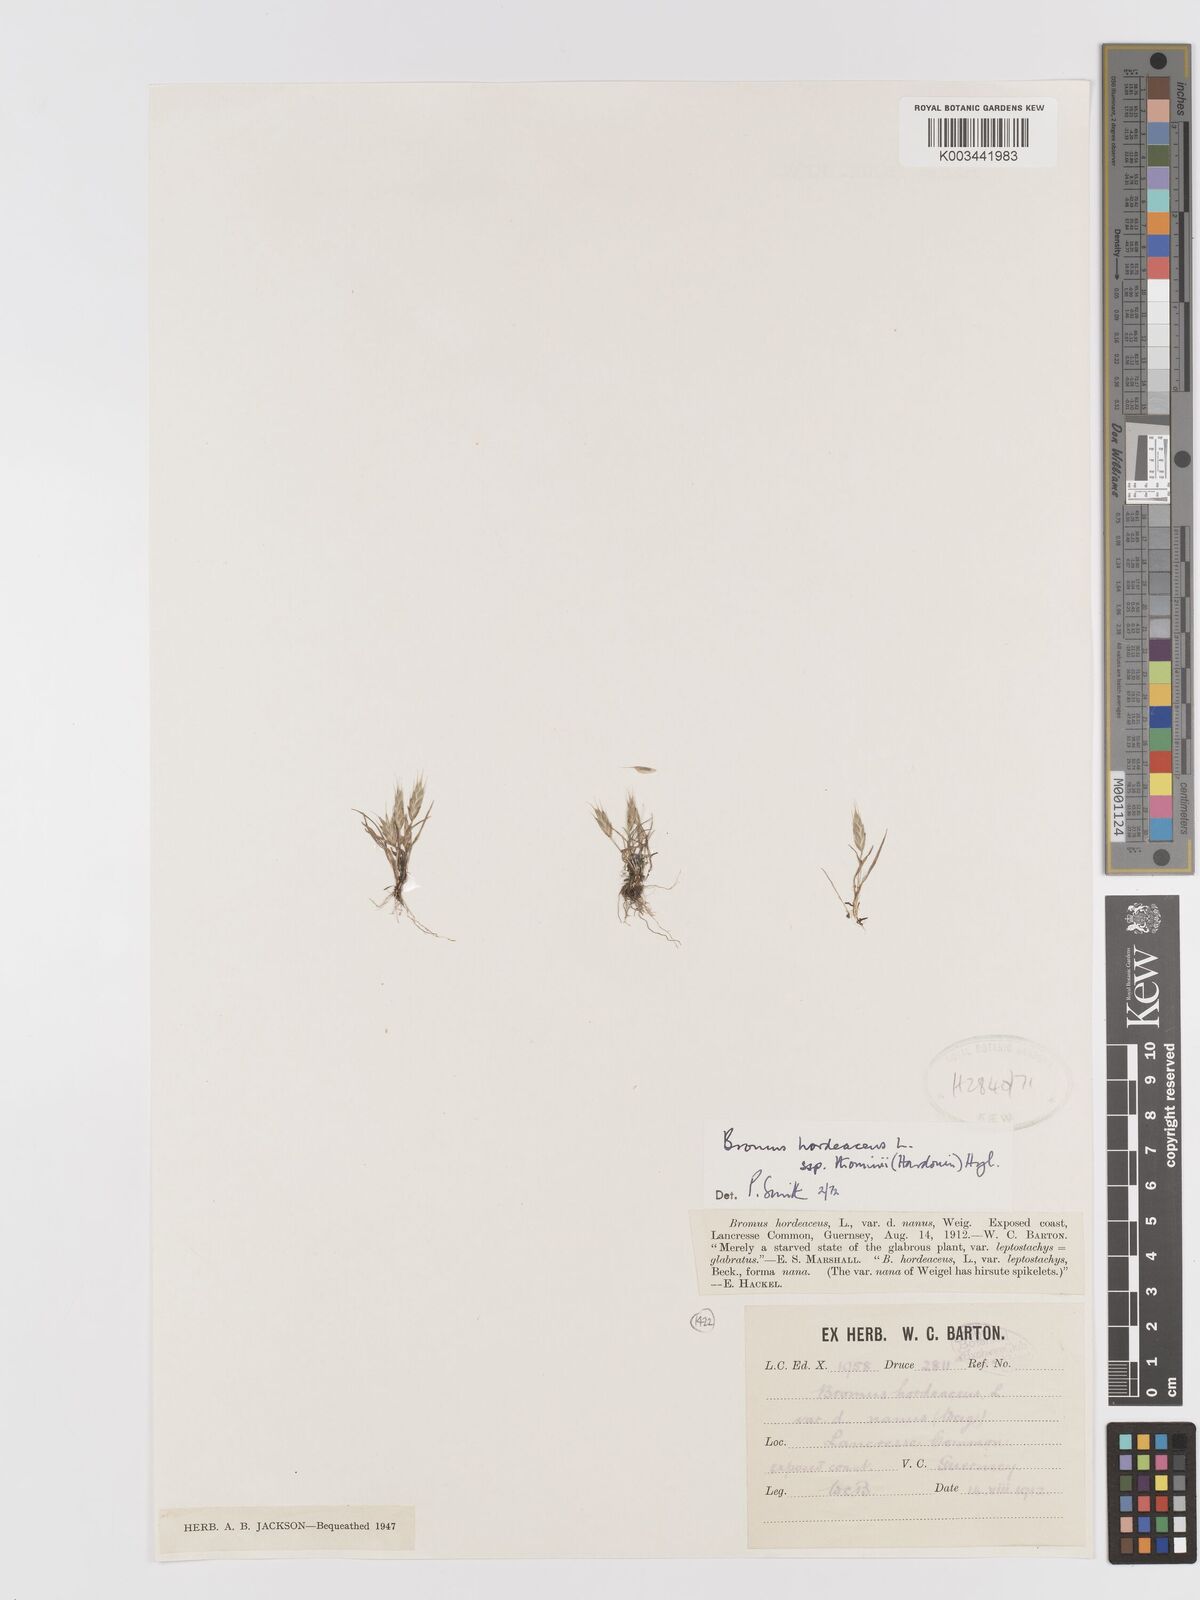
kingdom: Plantae
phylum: Tracheophyta
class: Liliopsida
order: Poales
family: Poaceae
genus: Bromus
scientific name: Bromus hordeaceus
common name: Soft brome
